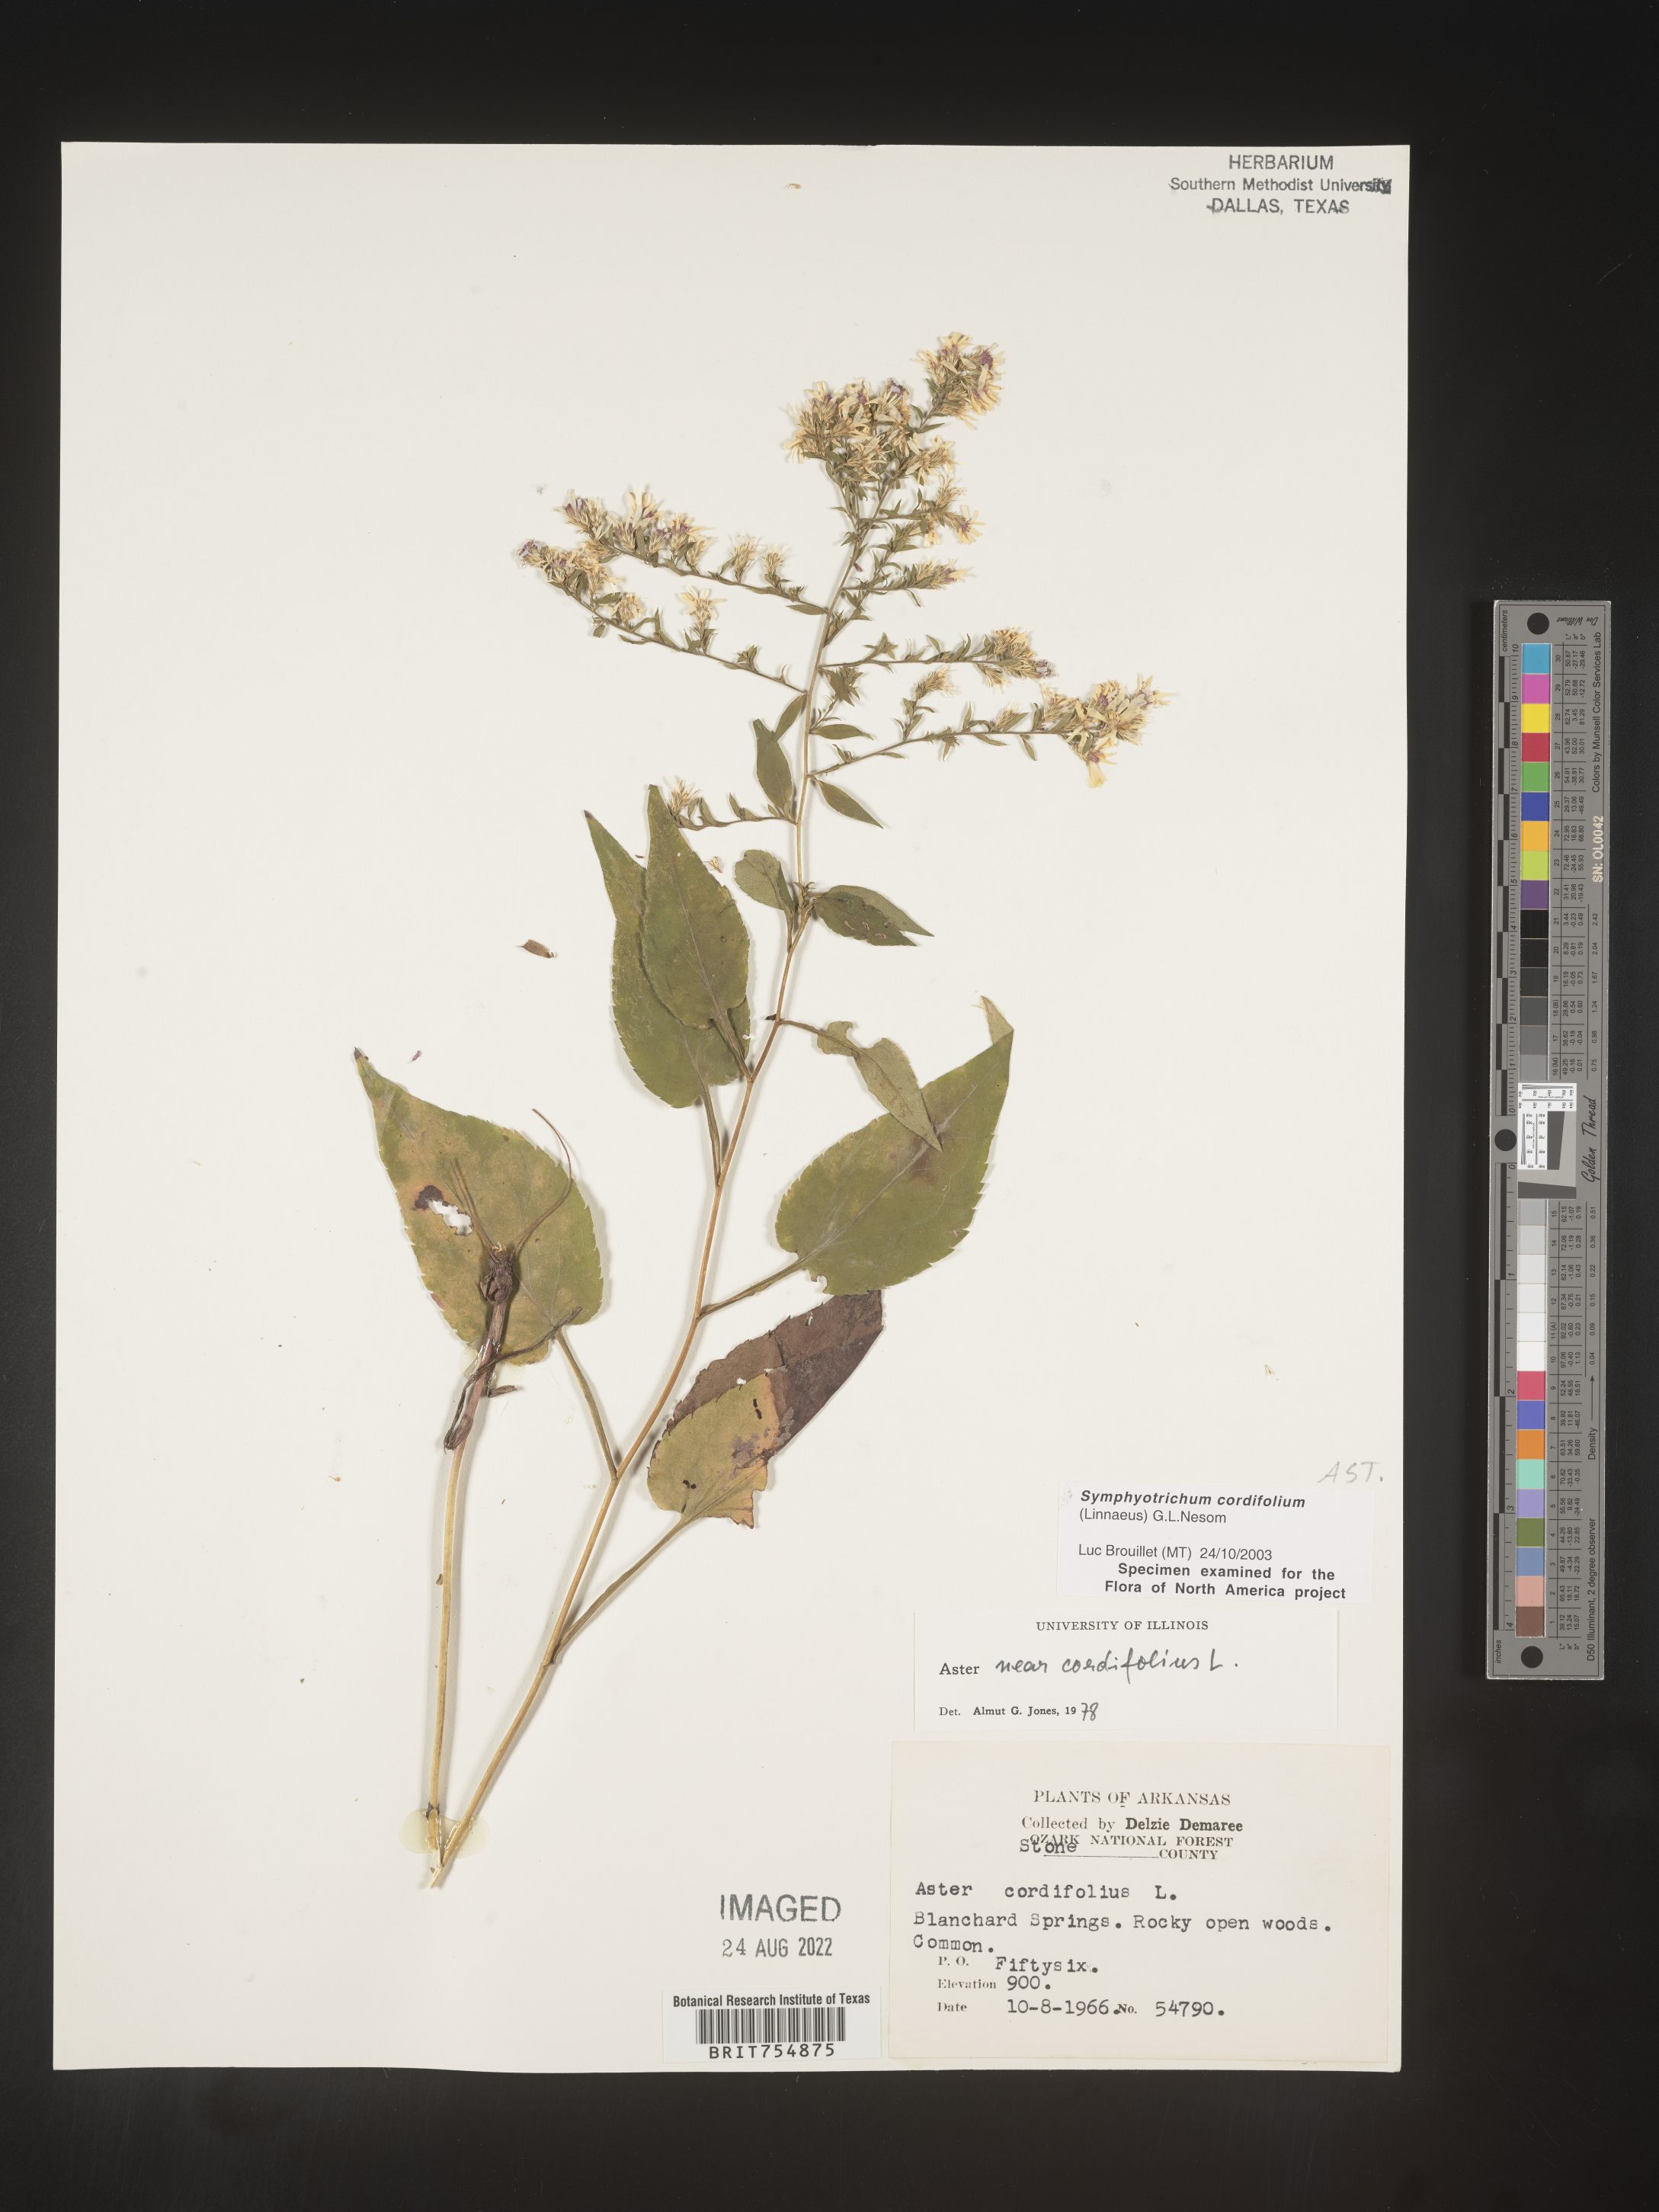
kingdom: Plantae
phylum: Tracheophyta
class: Magnoliopsida
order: Asterales
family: Asteraceae
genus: Symphyotrichum
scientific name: Symphyotrichum urophyllum
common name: Arrow-leaved aster
